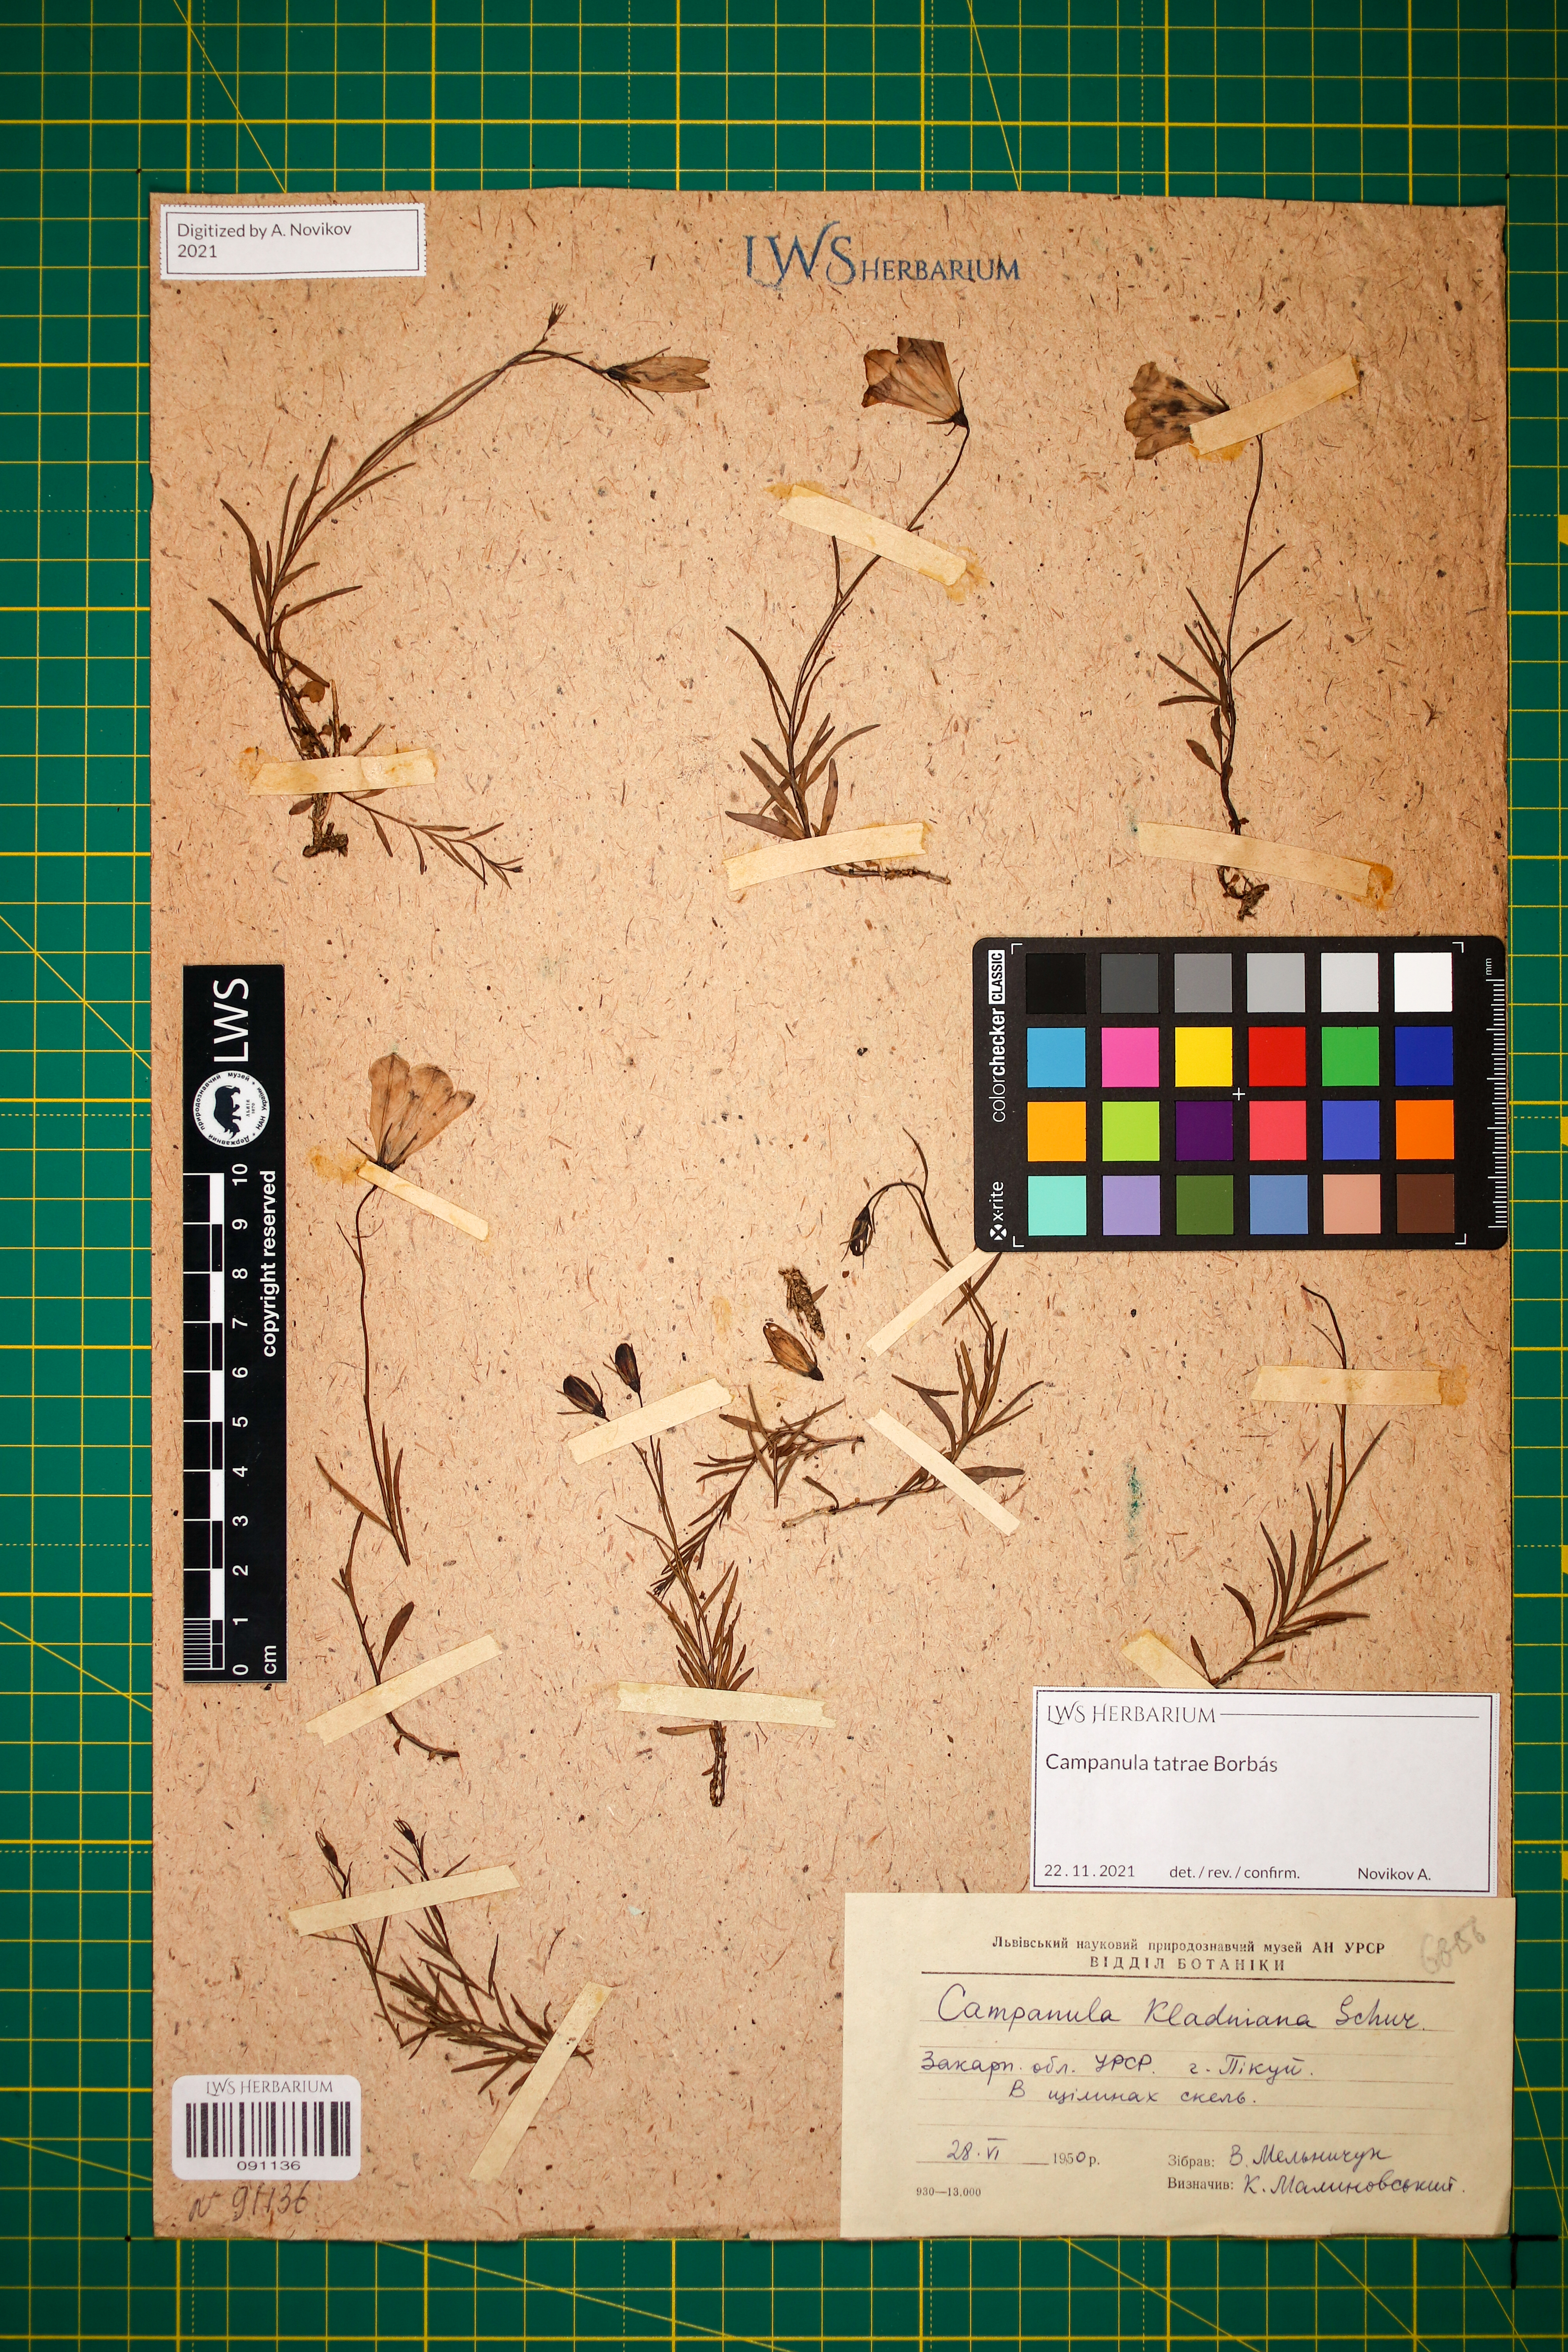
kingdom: Plantae
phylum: Tracheophyta
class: Magnoliopsida
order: Asterales
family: Campanulaceae
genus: Campanula
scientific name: Campanula kladniana
